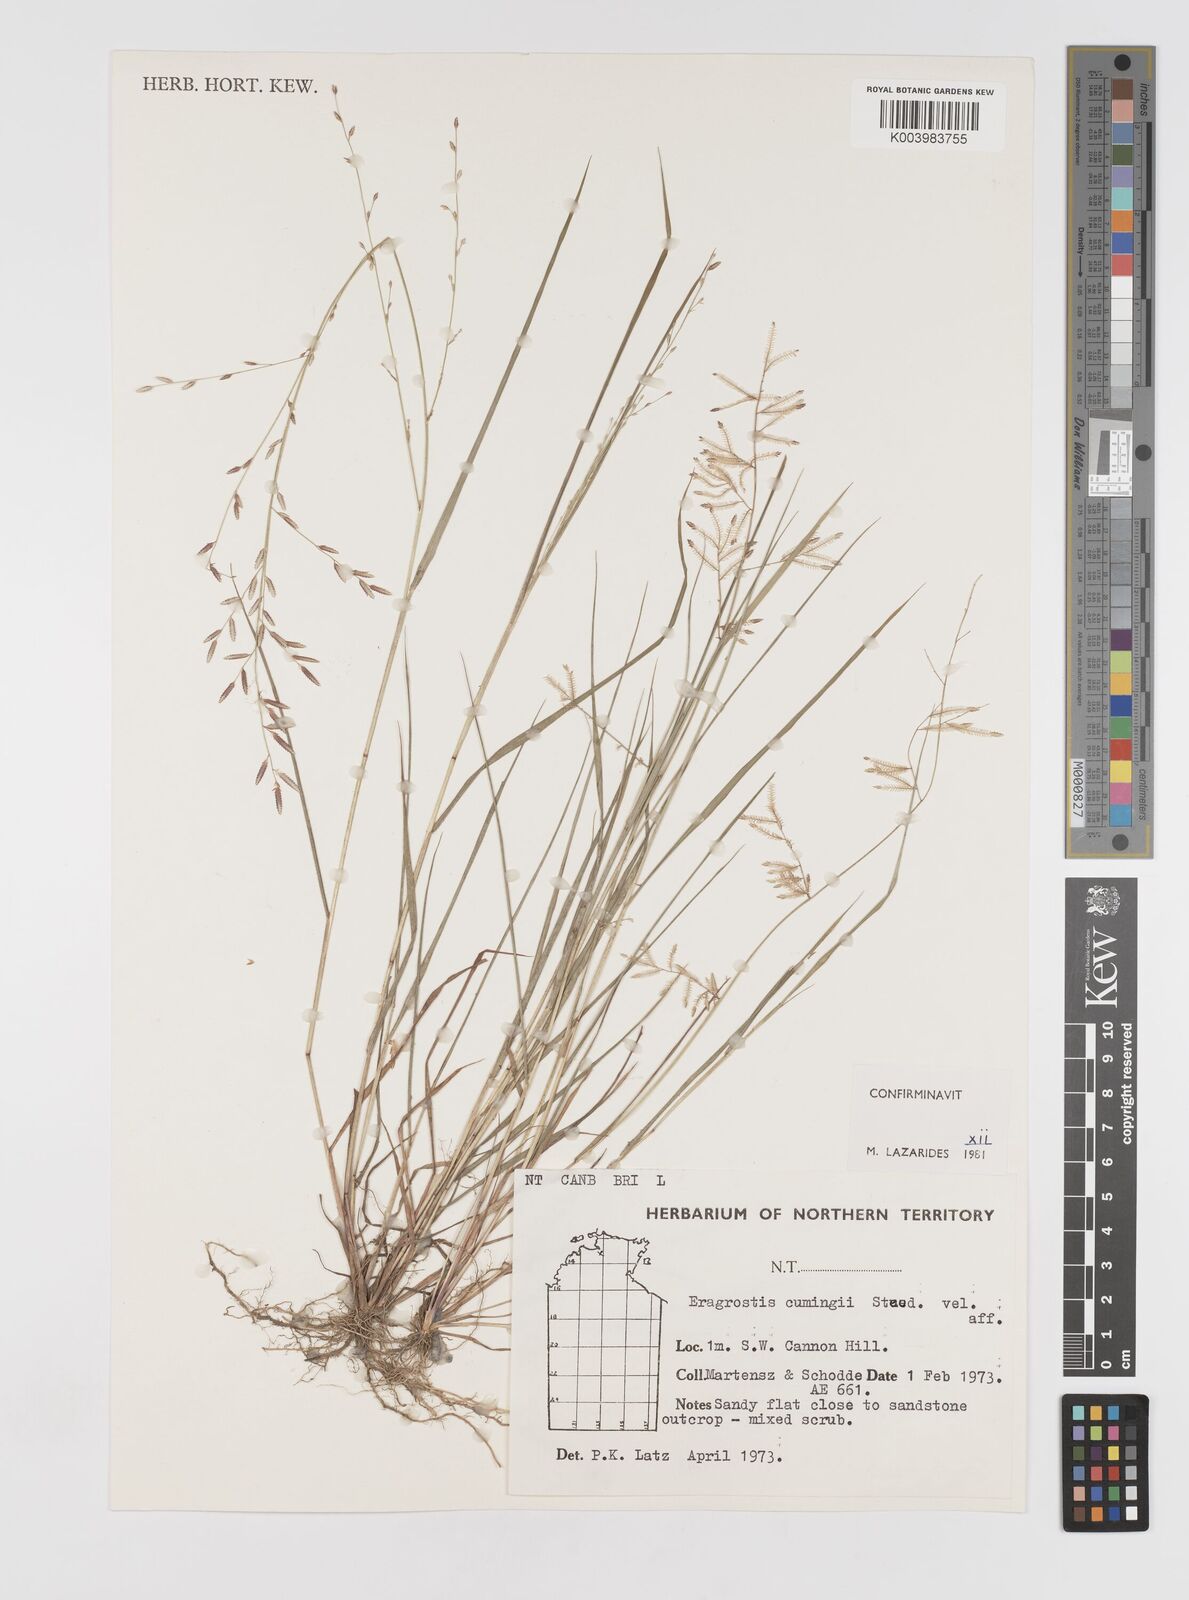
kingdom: Plantae
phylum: Tracheophyta
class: Liliopsida
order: Poales
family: Poaceae
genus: Eragrostis
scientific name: Eragrostis cumingii
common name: Cuming's lovegrass
